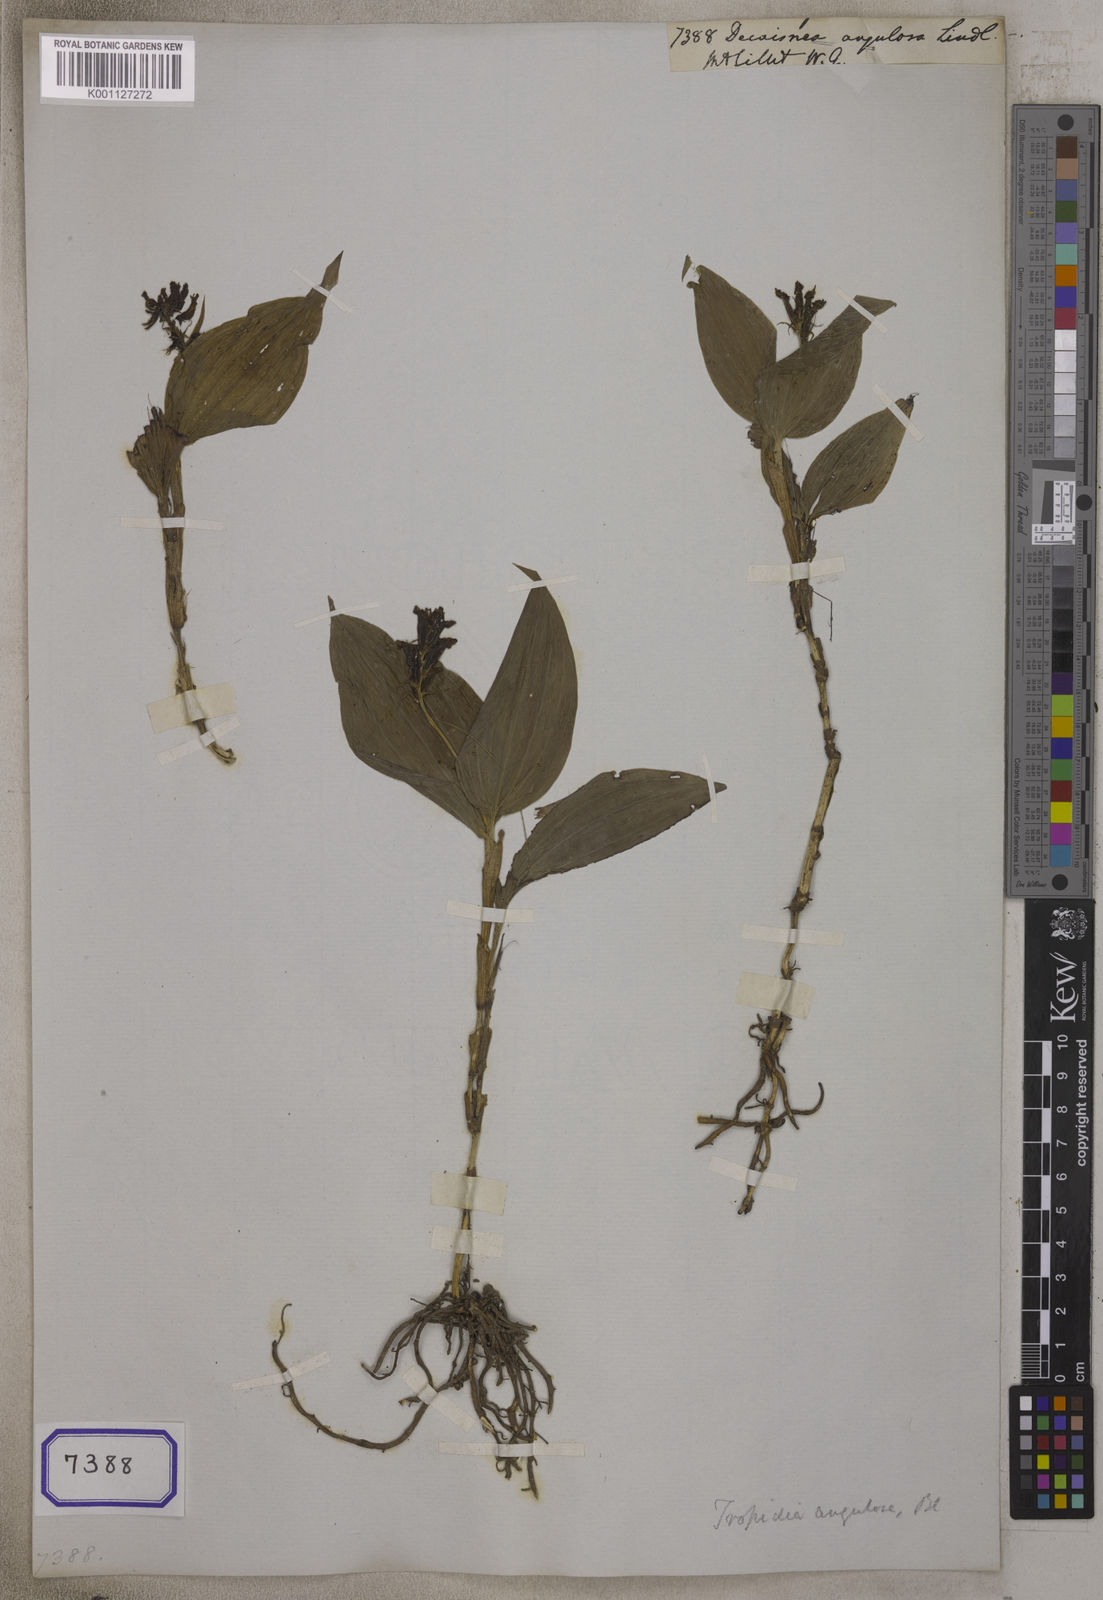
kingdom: Plantae
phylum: Tracheophyta
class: Magnoliopsida
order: Ranunculales
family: Lardizabalaceae
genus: Decaisnea
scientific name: Decaisnea
